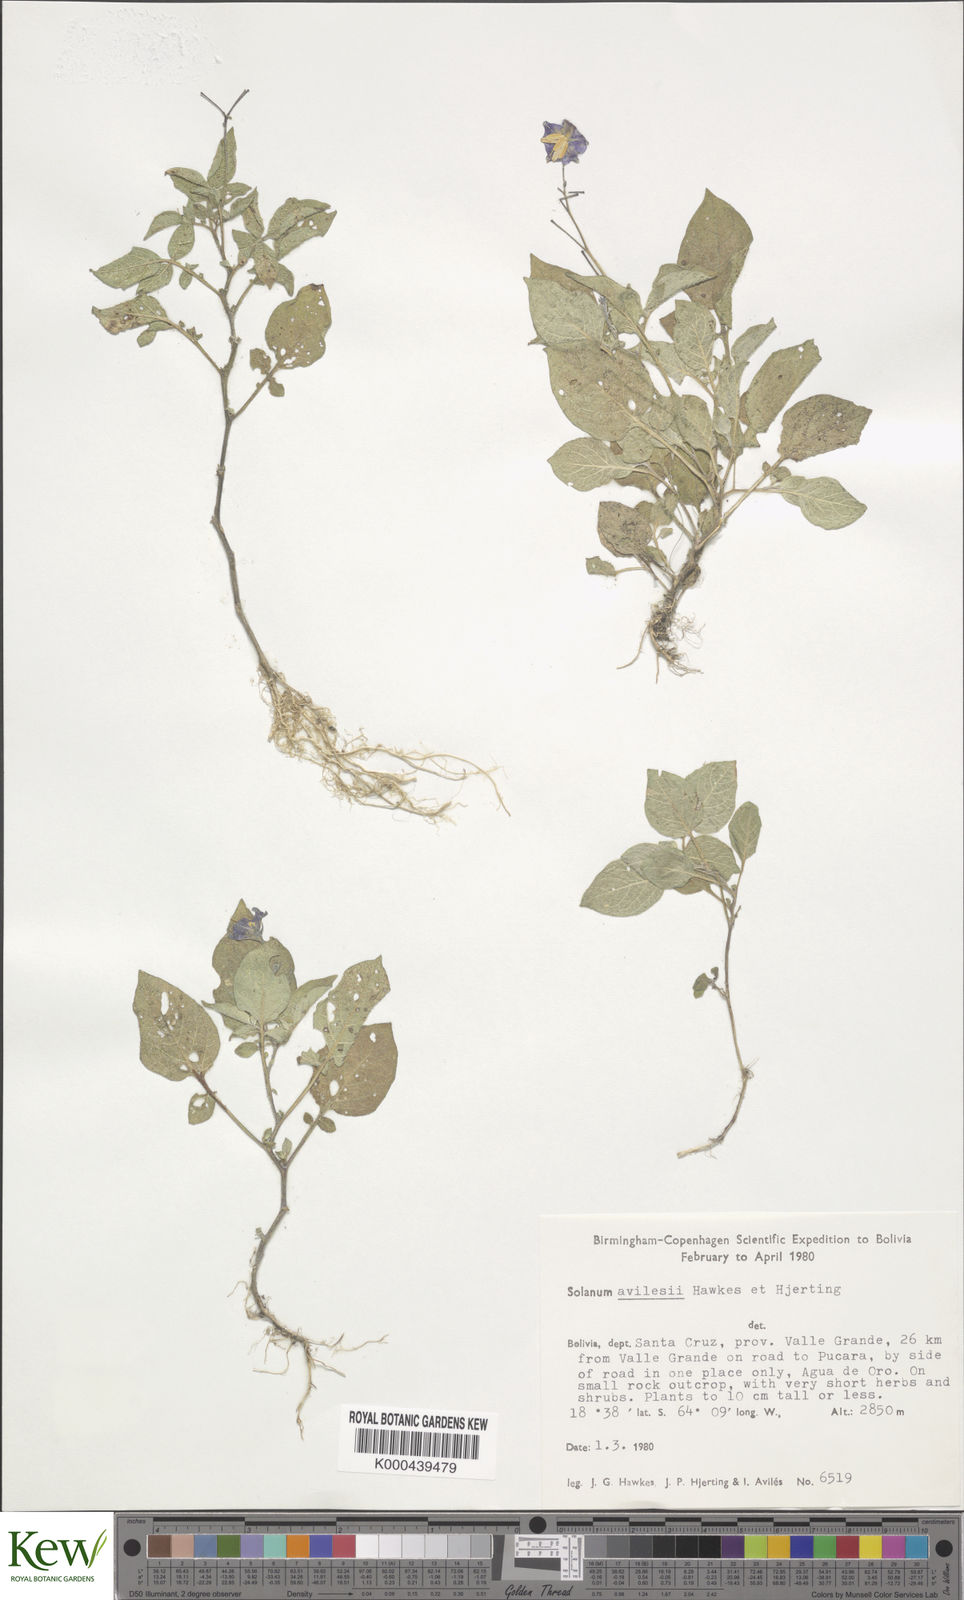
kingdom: Plantae
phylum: Tracheophyta
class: Magnoliopsida
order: Solanales
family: Solanaceae
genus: Solanum
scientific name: Solanum brevicaule
